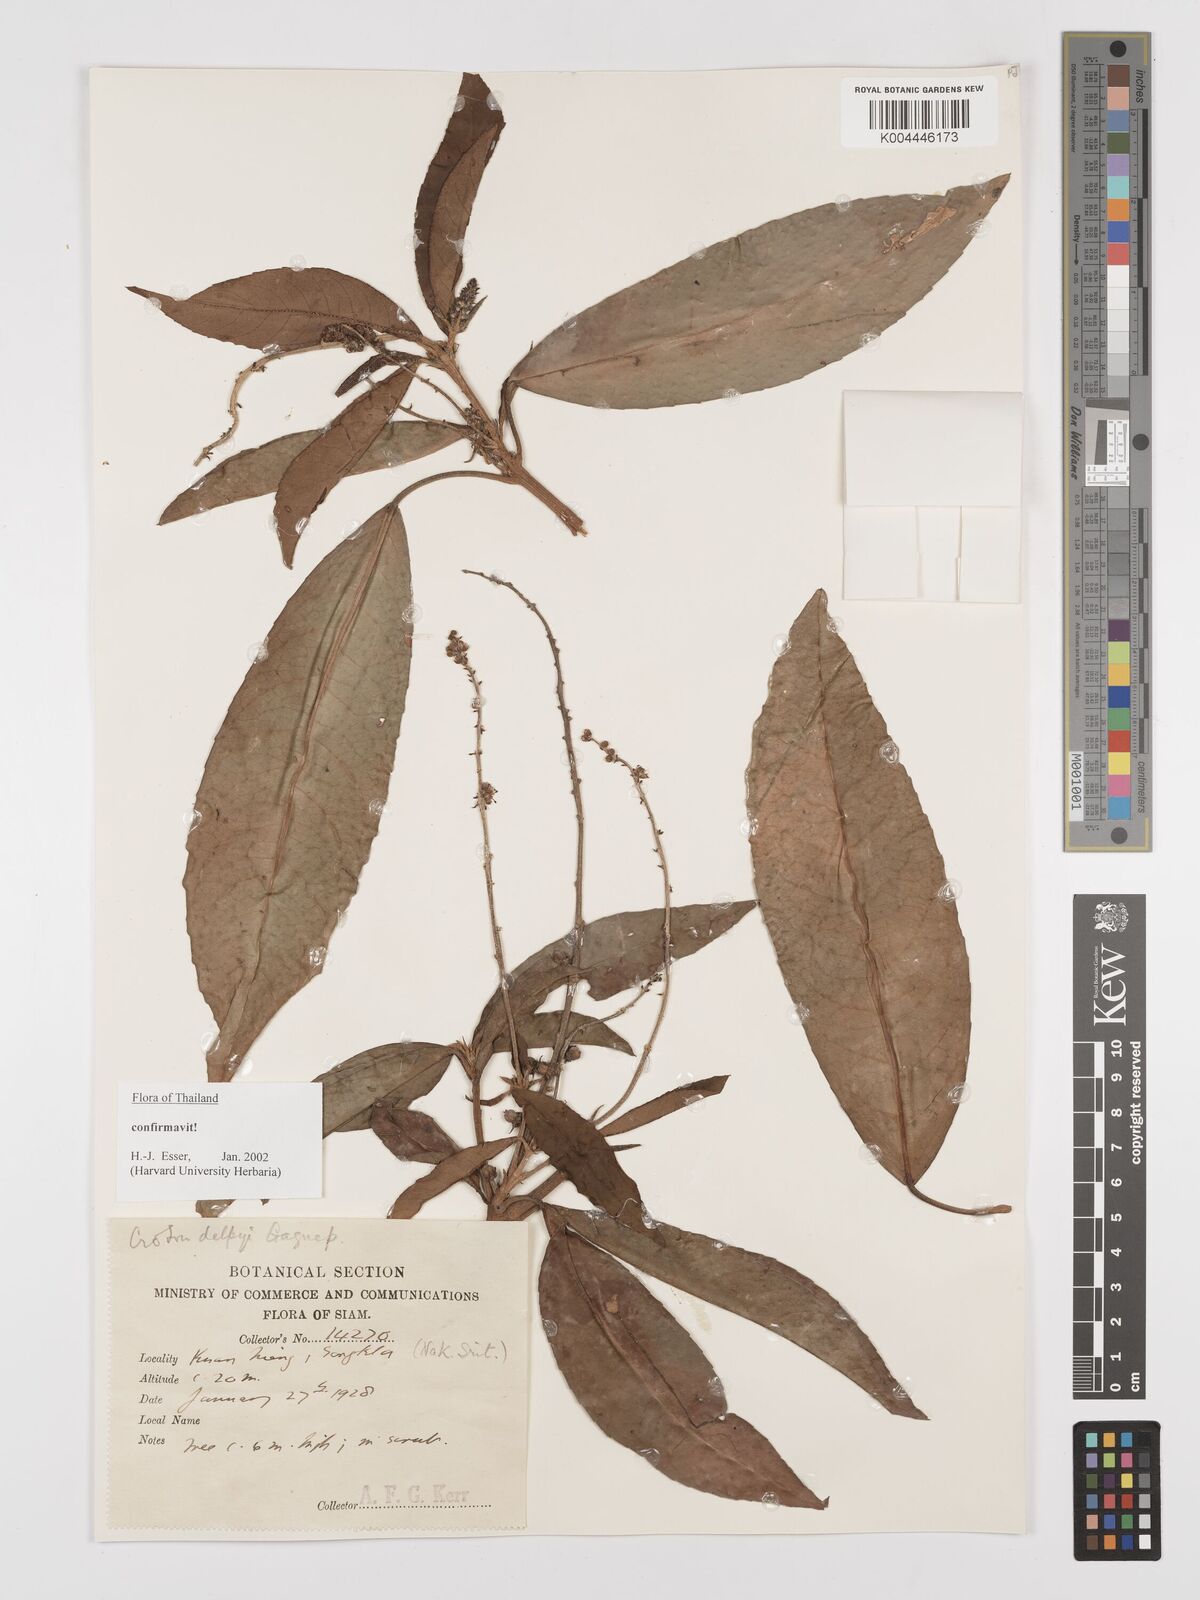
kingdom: Plantae
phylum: Tracheophyta
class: Magnoliopsida
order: Malpighiales
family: Euphorbiaceae
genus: Croton
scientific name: Croton delpyi
